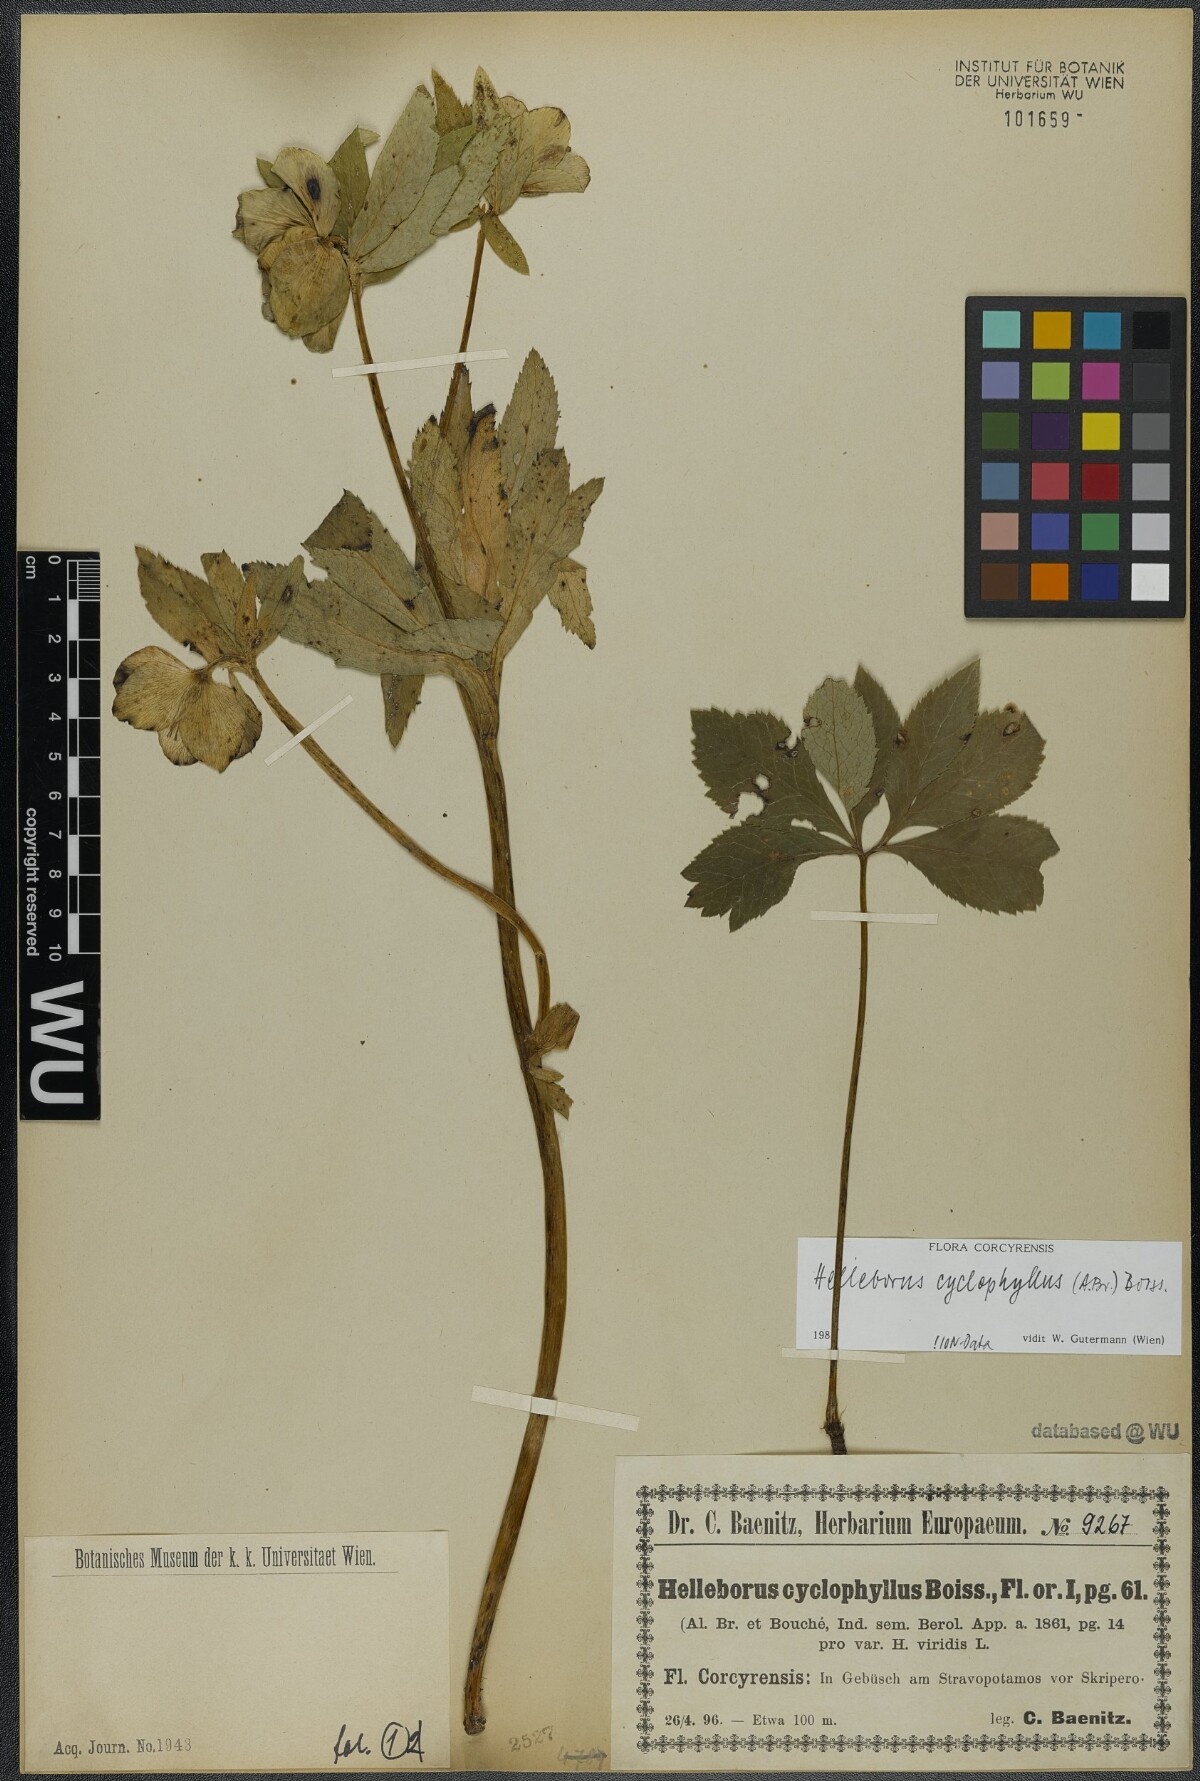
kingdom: Plantae
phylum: Tracheophyta
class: Magnoliopsida
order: Ranunculales
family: Ranunculaceae
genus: Helleborus
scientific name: Helleborus odorus
